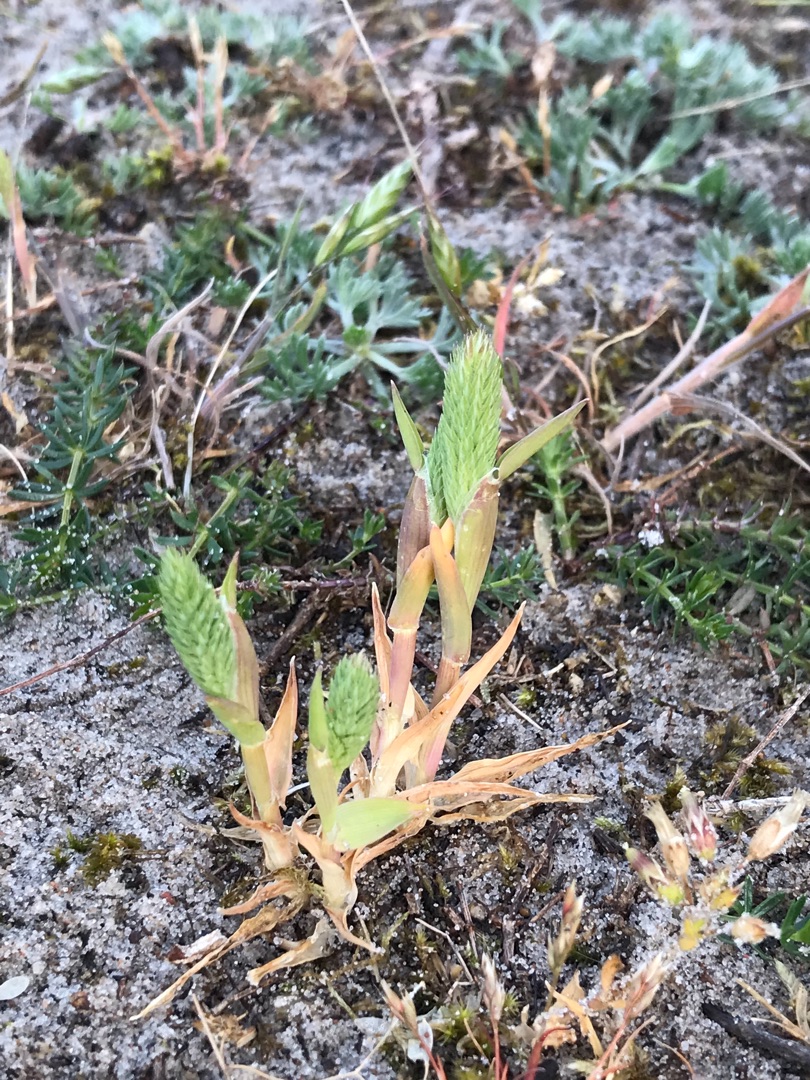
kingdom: Plantae
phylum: Tracheophyta
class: Liliopsida
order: Poales
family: Poaceae
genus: Phleum
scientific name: Phleum arenarium
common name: Sand-rottehale
